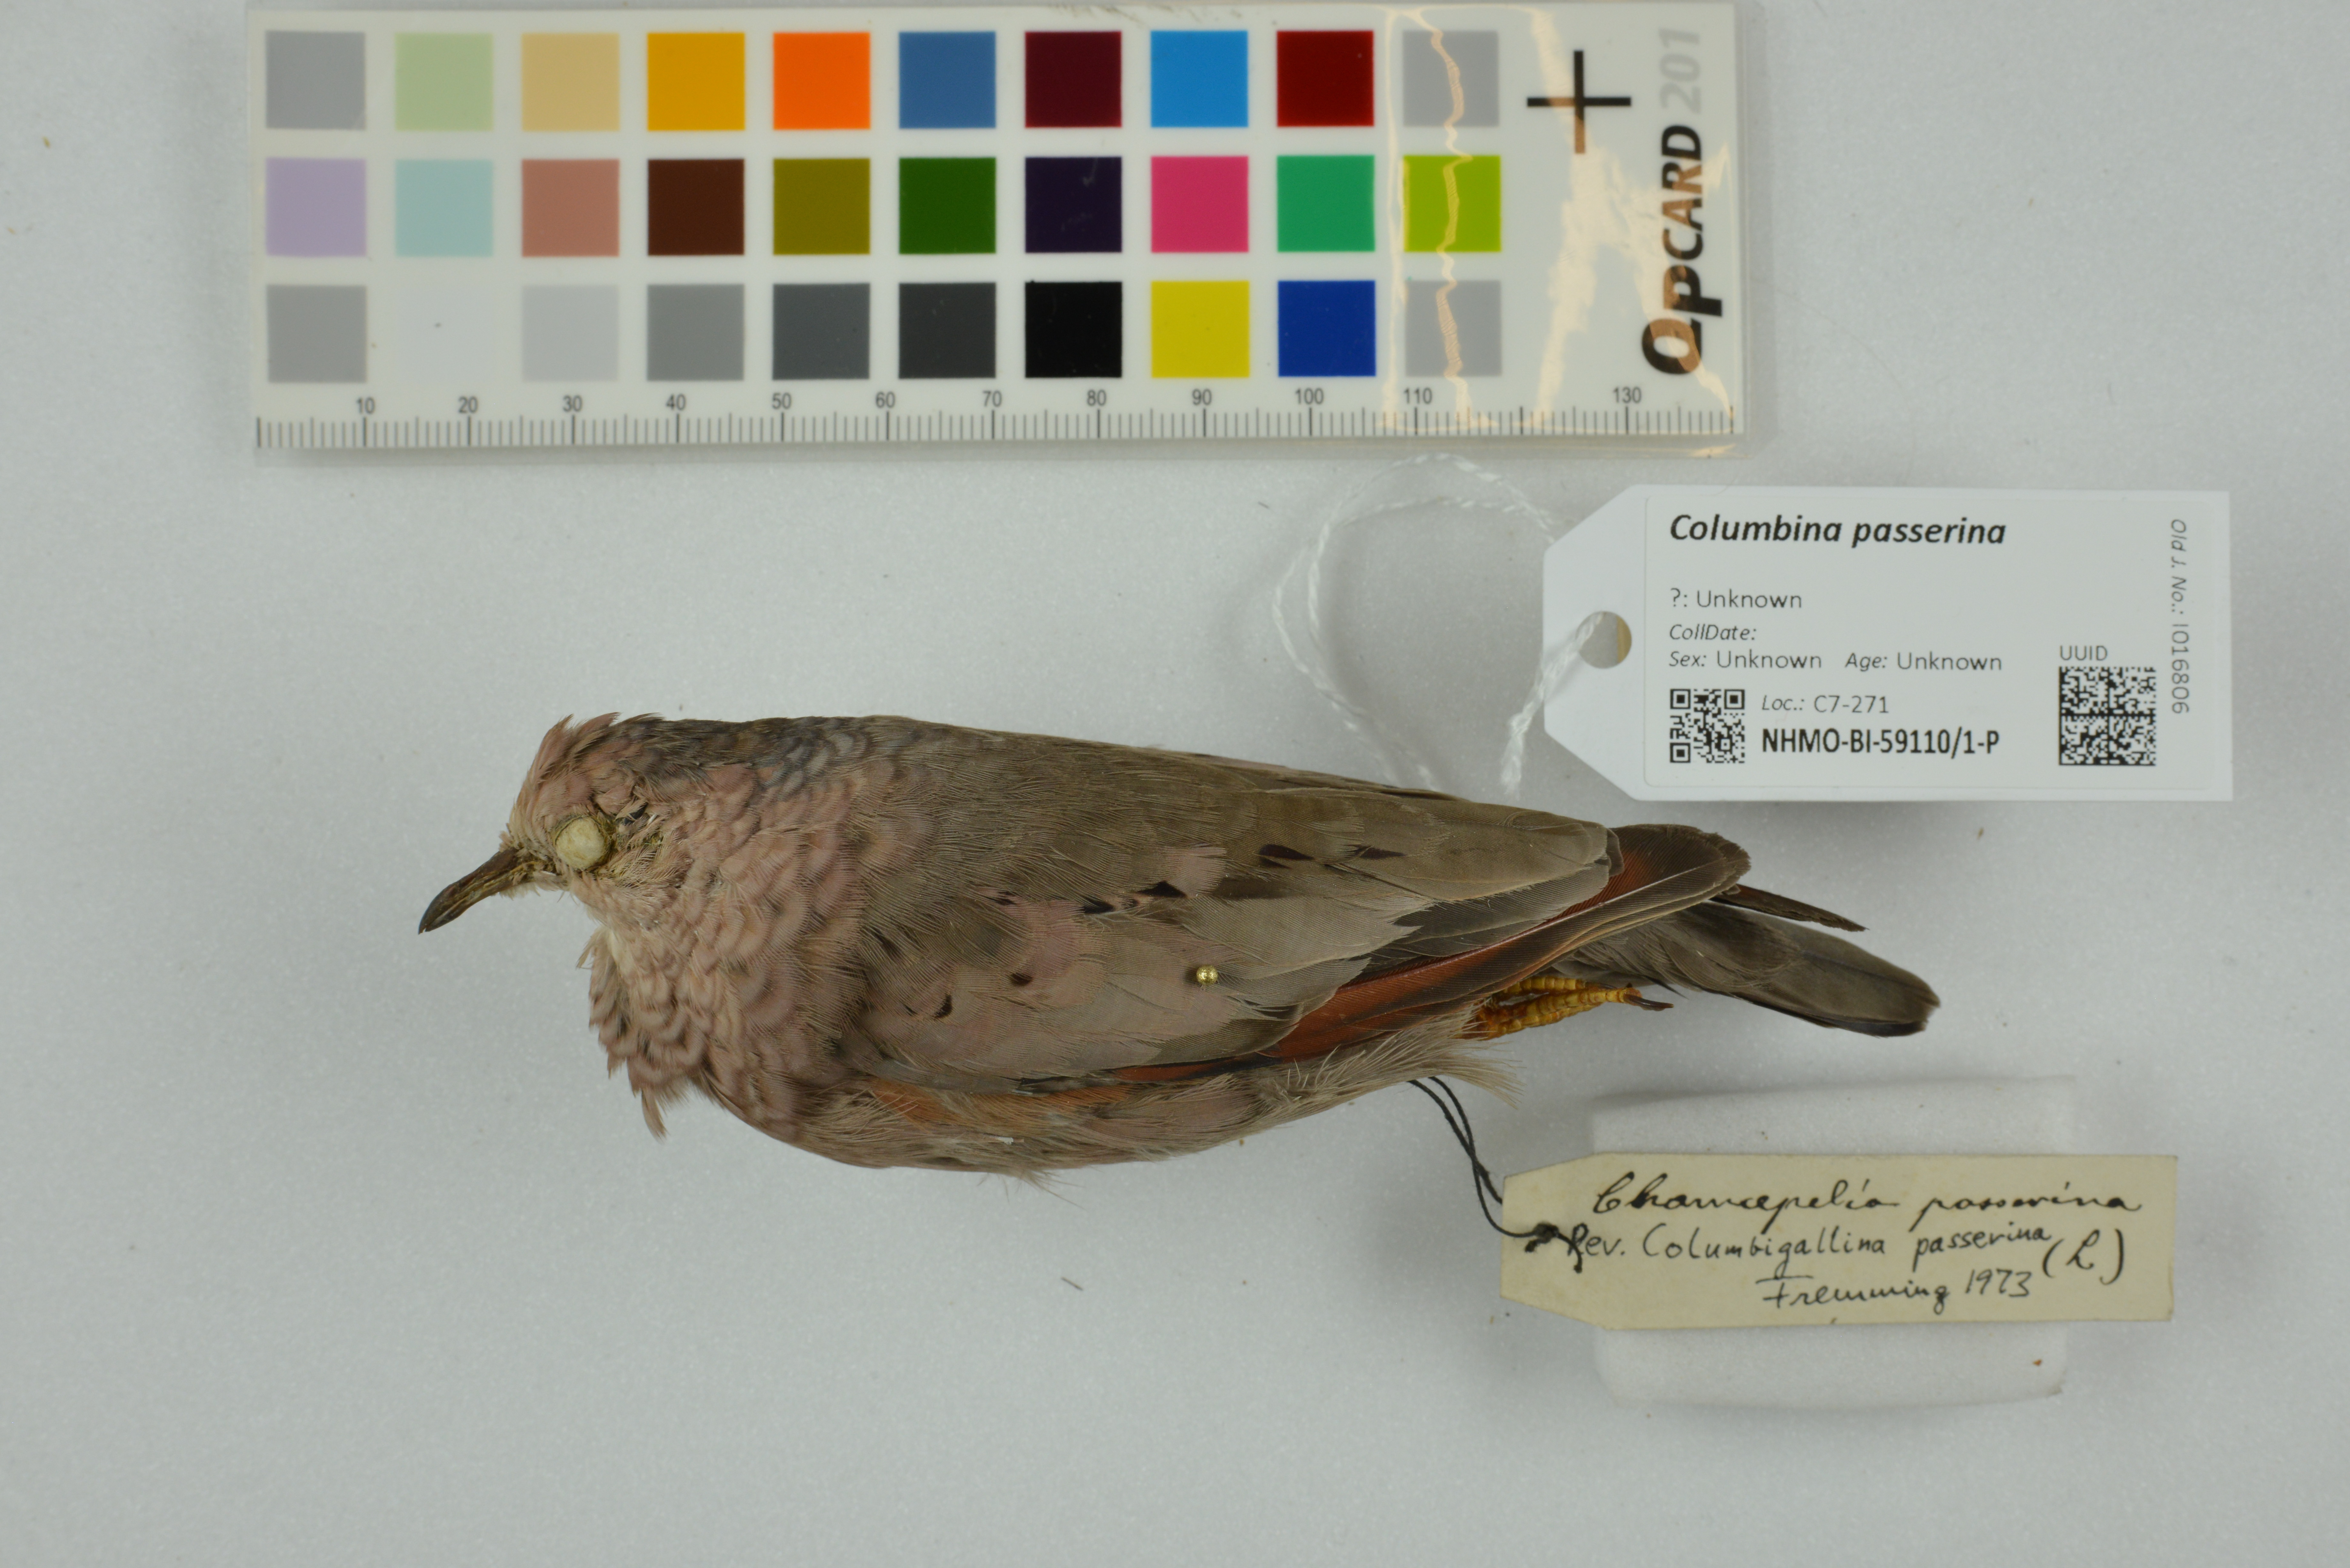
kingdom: Animalia
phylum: Chordata
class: Aves
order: Columbiformes
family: Columbidae
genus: Columbina
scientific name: Columbina passerina
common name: Common ground-dove
